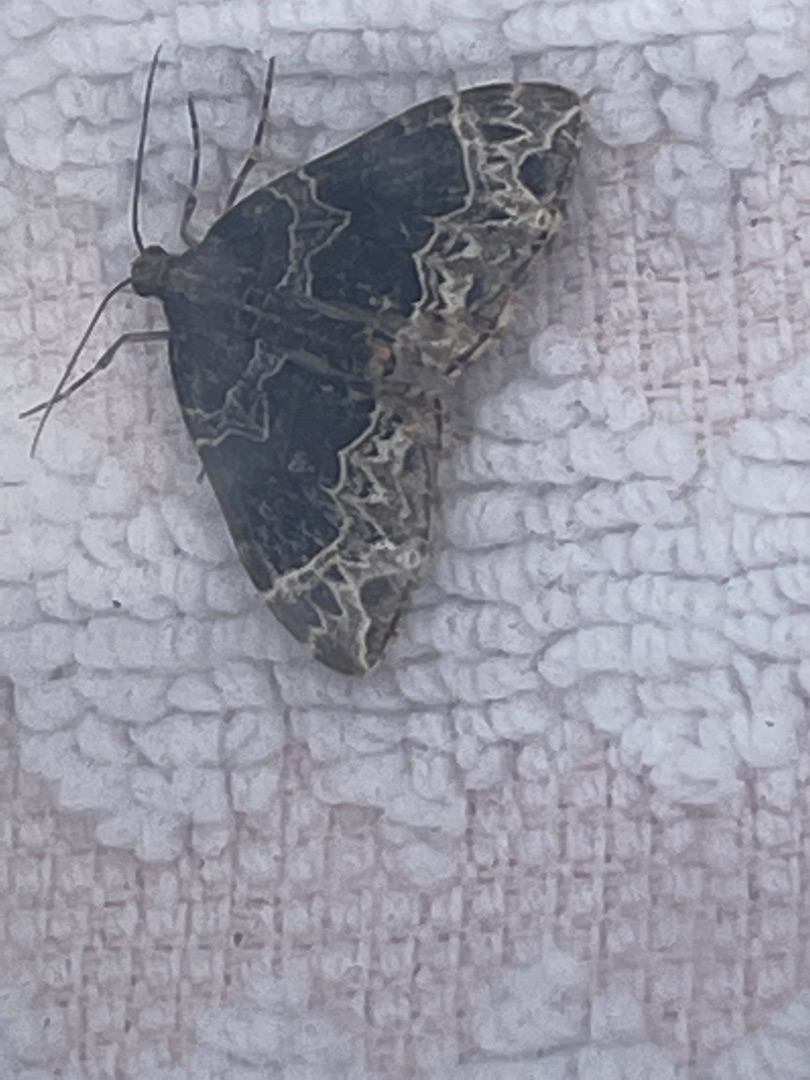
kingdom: Animalia
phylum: Arthropoda
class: Insecta
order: Lepidoptera
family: Geometridae
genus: Ecliptopera
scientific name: Ecliptopera silaceata
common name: Dueurt-bladmåler
